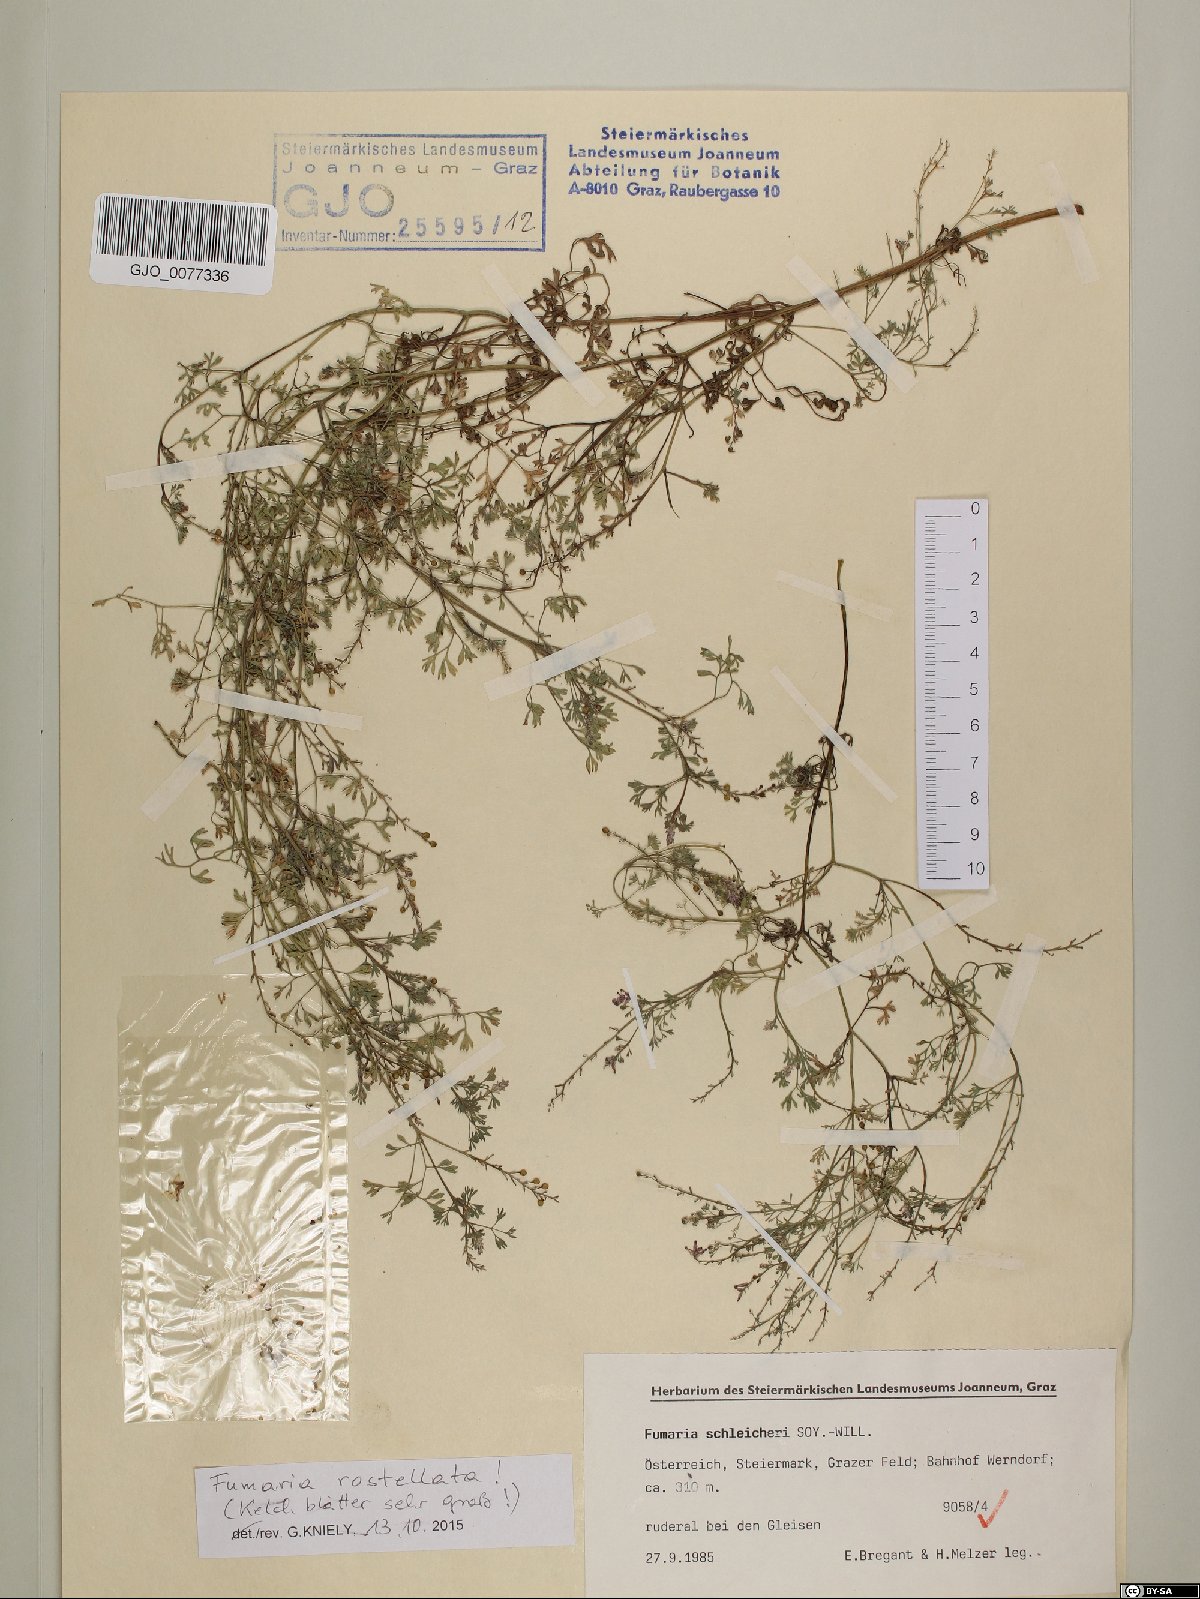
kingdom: Plantae
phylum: Tracheophyta
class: Magnoliopsida
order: Ranunculales
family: Papaveraceae
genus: Fumaria
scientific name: Fumaria rostellata
